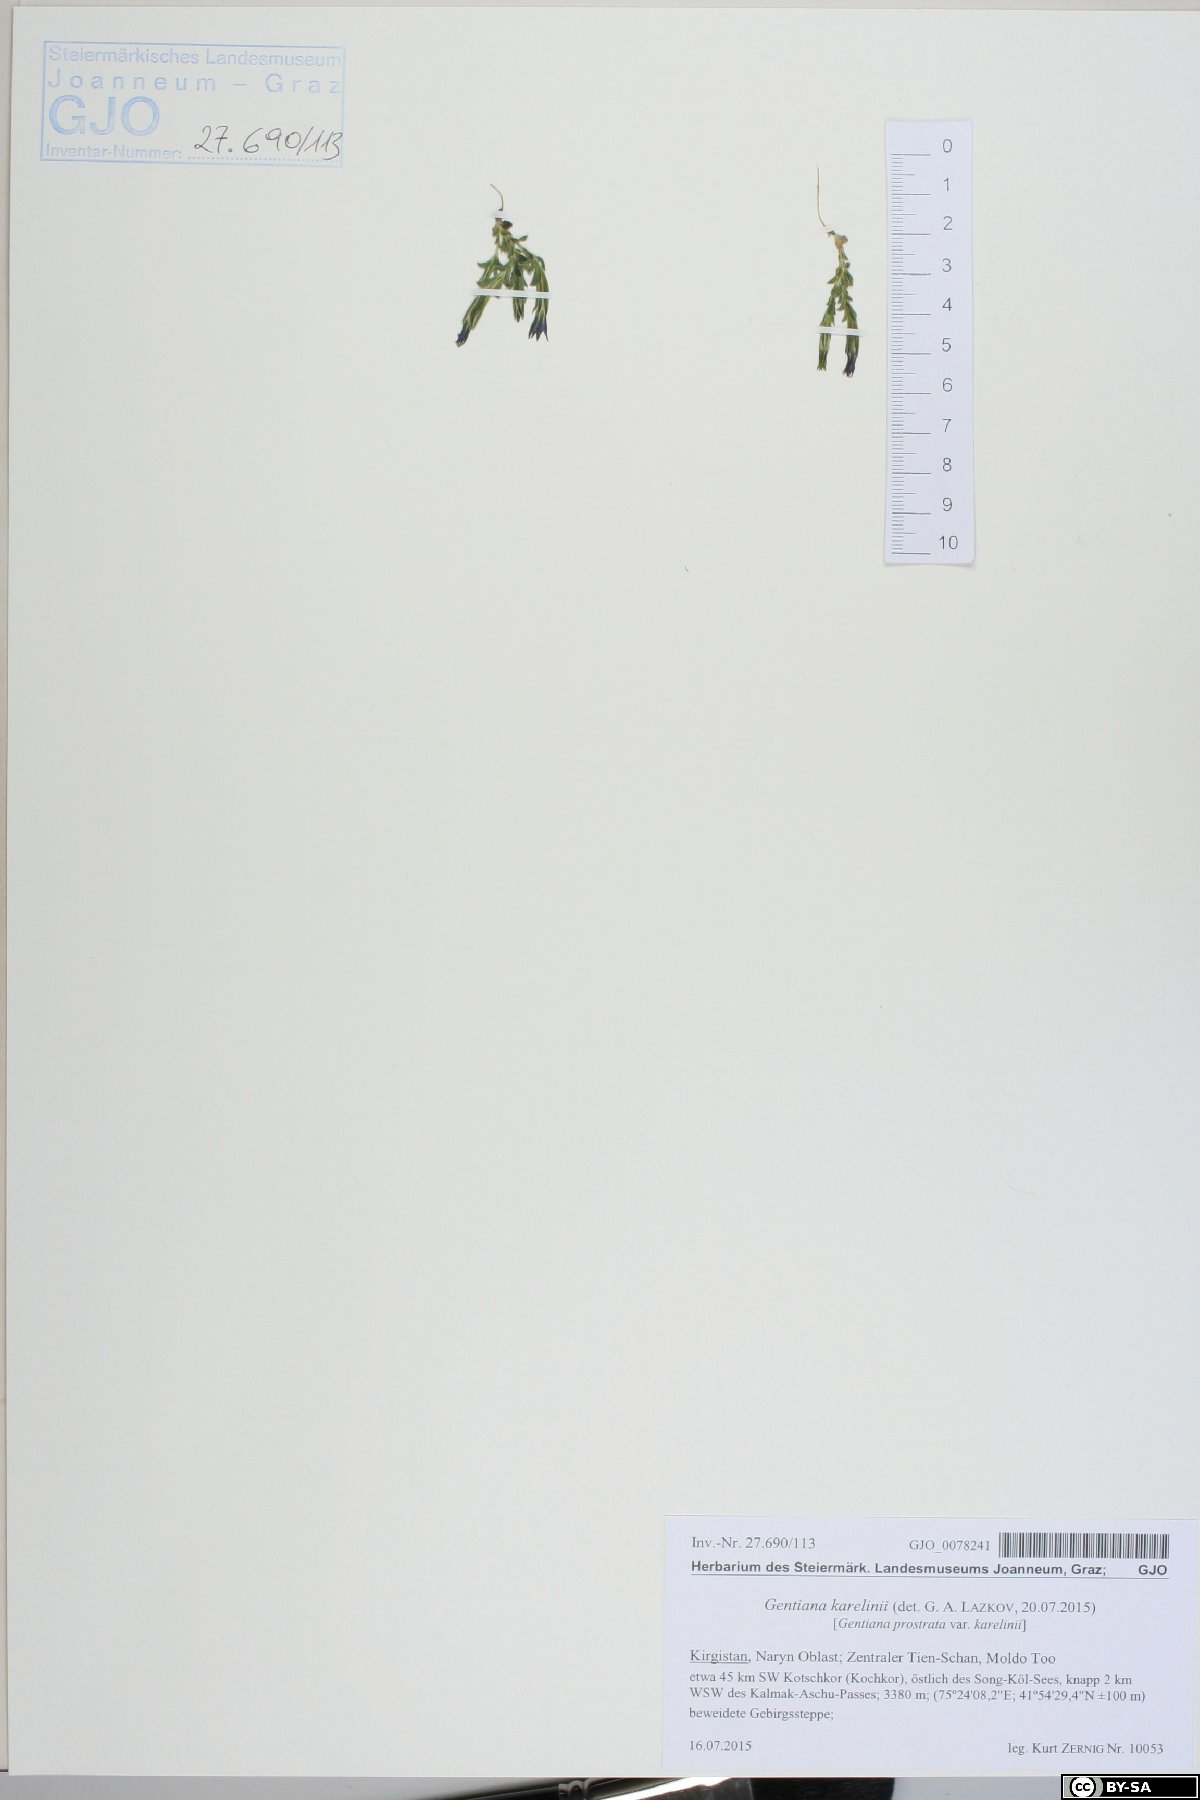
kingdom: Plantae
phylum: Tracheophyta
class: Magnoliopsida
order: Gentianales
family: Gentianaceae
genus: Gentiana
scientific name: Gentiana prostrata
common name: Moss gentian
